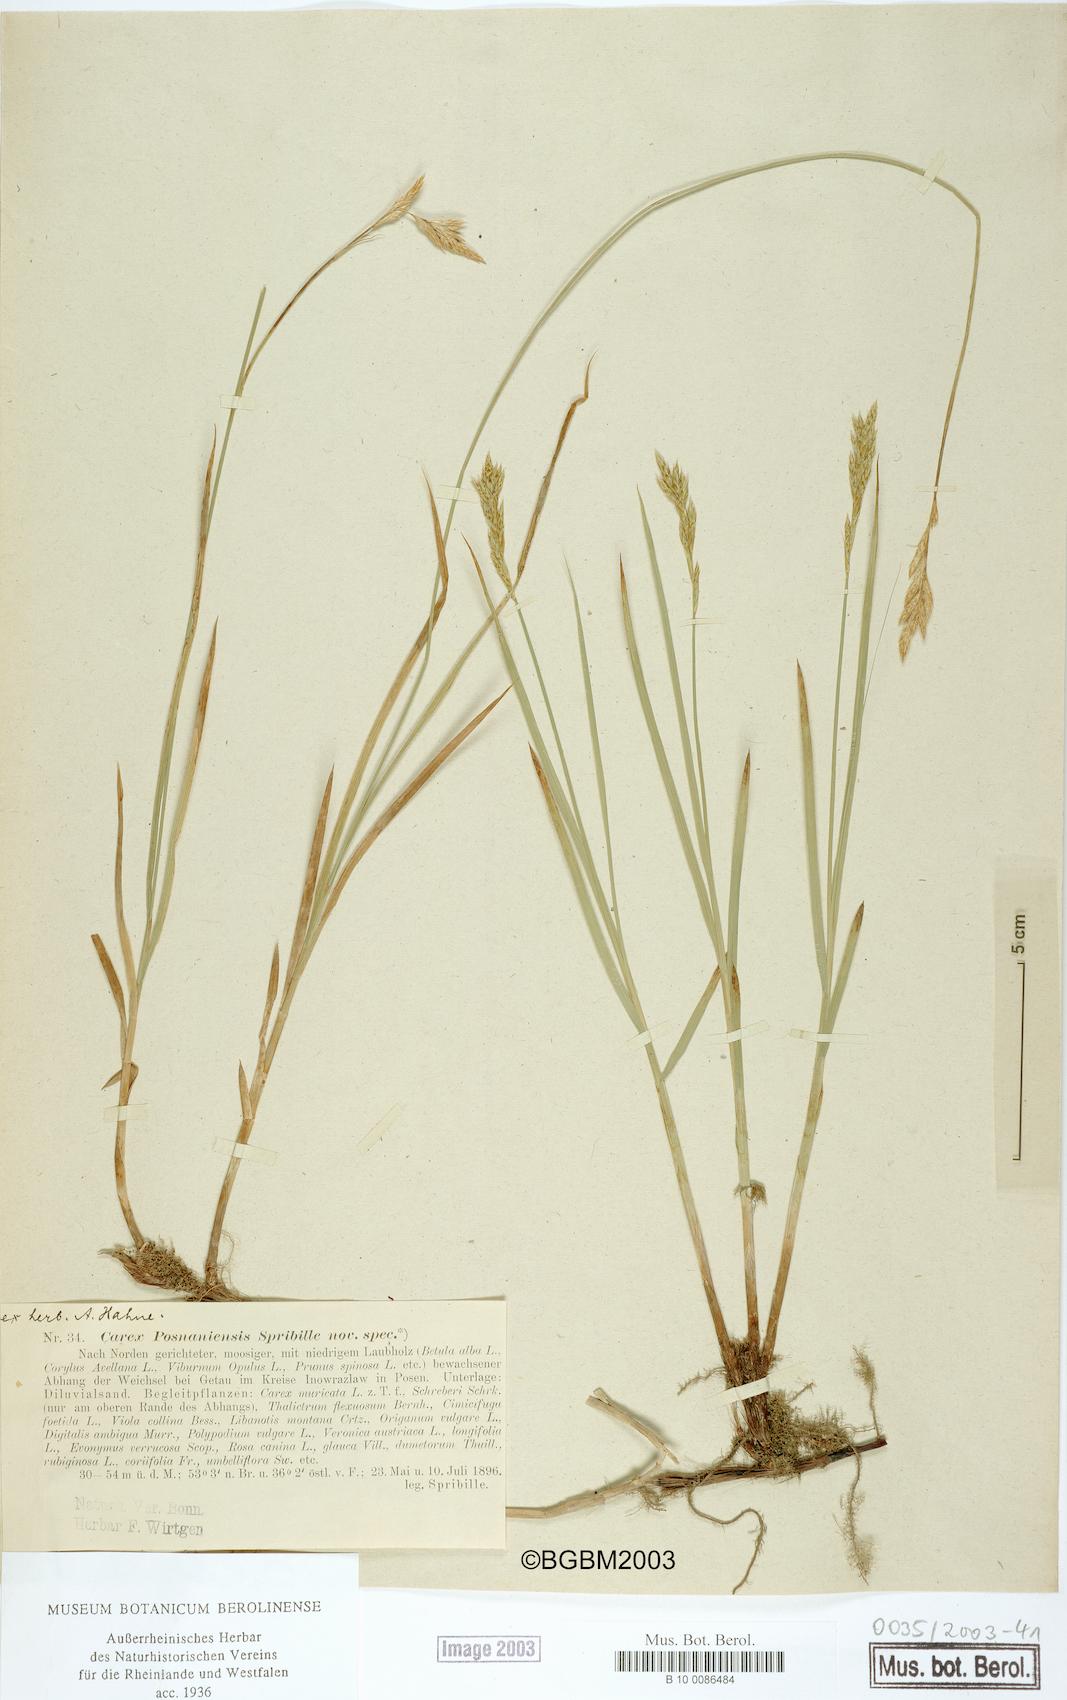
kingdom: Plantae
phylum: Tracheophyta
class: Liliopsida
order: Poales
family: Cyperaceae
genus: Carex
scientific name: Carex repens
